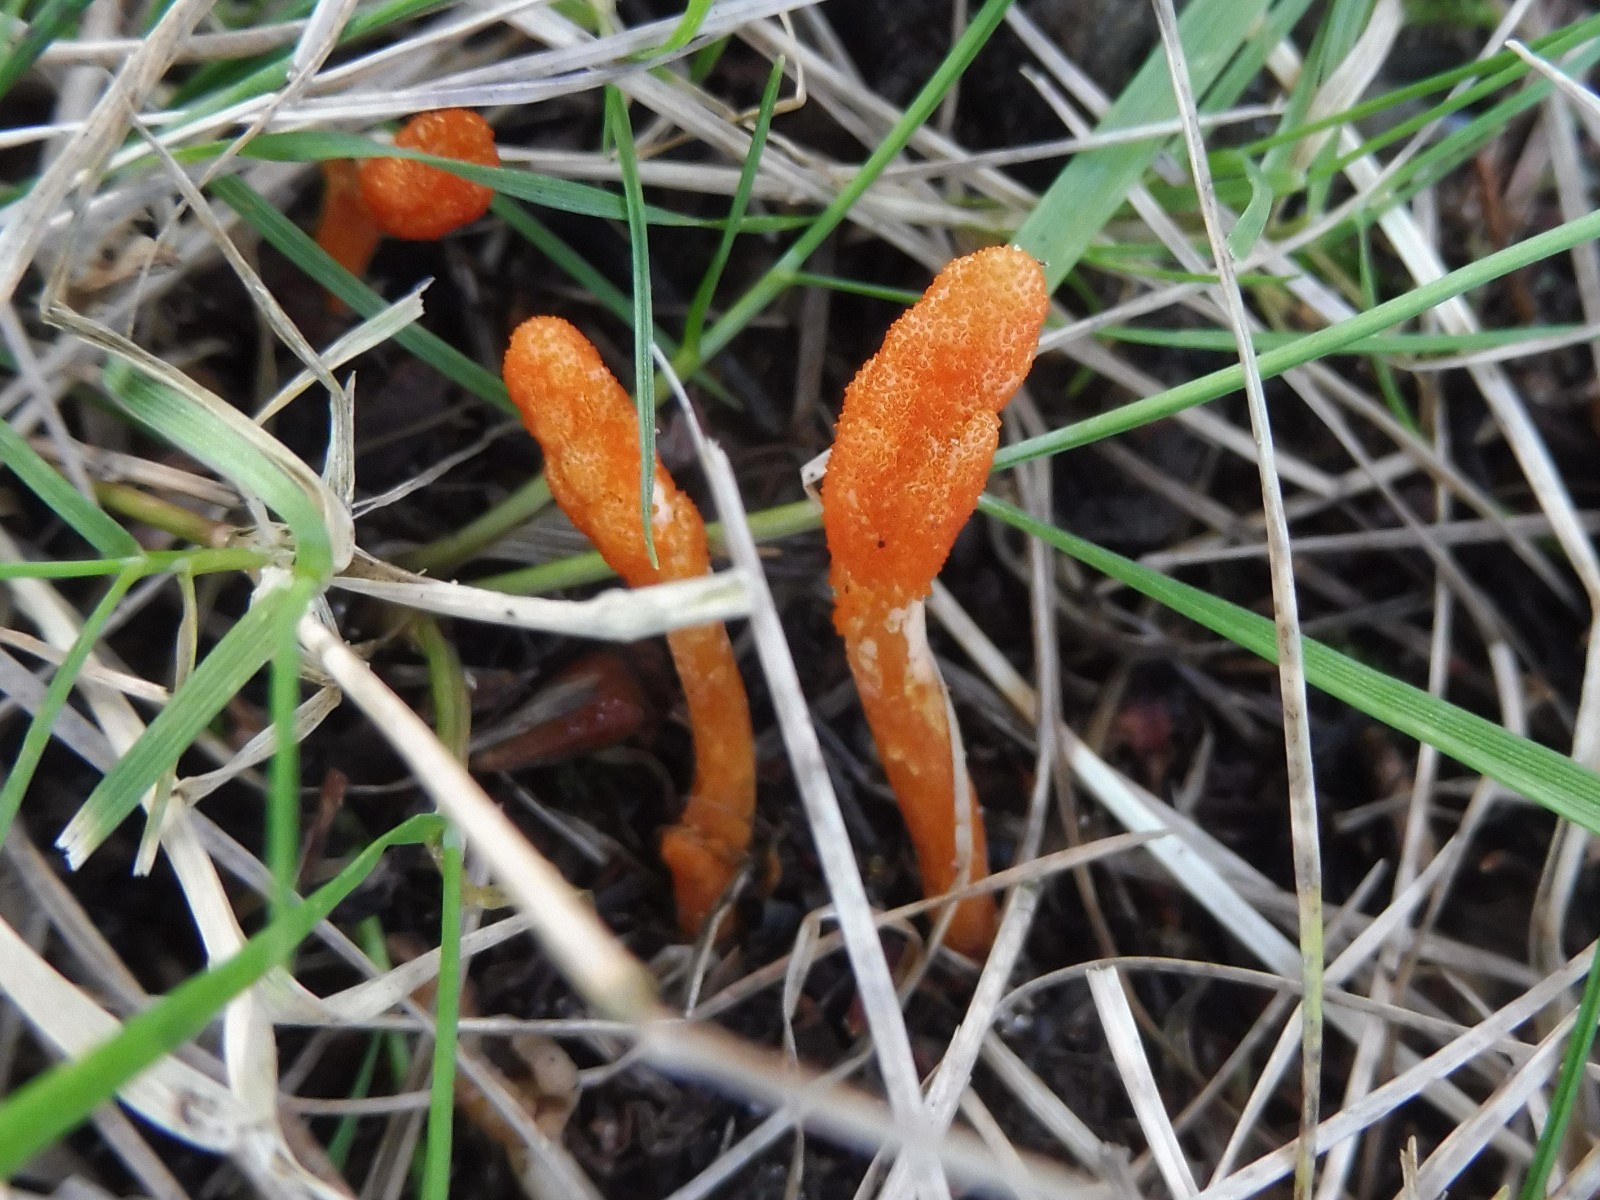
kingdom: Fungi
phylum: Ascomycota
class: Sordariomycetes
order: Hypocreales
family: Cordycipitaceae
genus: Cordyceps
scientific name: Cordyceps militaris
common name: puppe-snyltekølle
